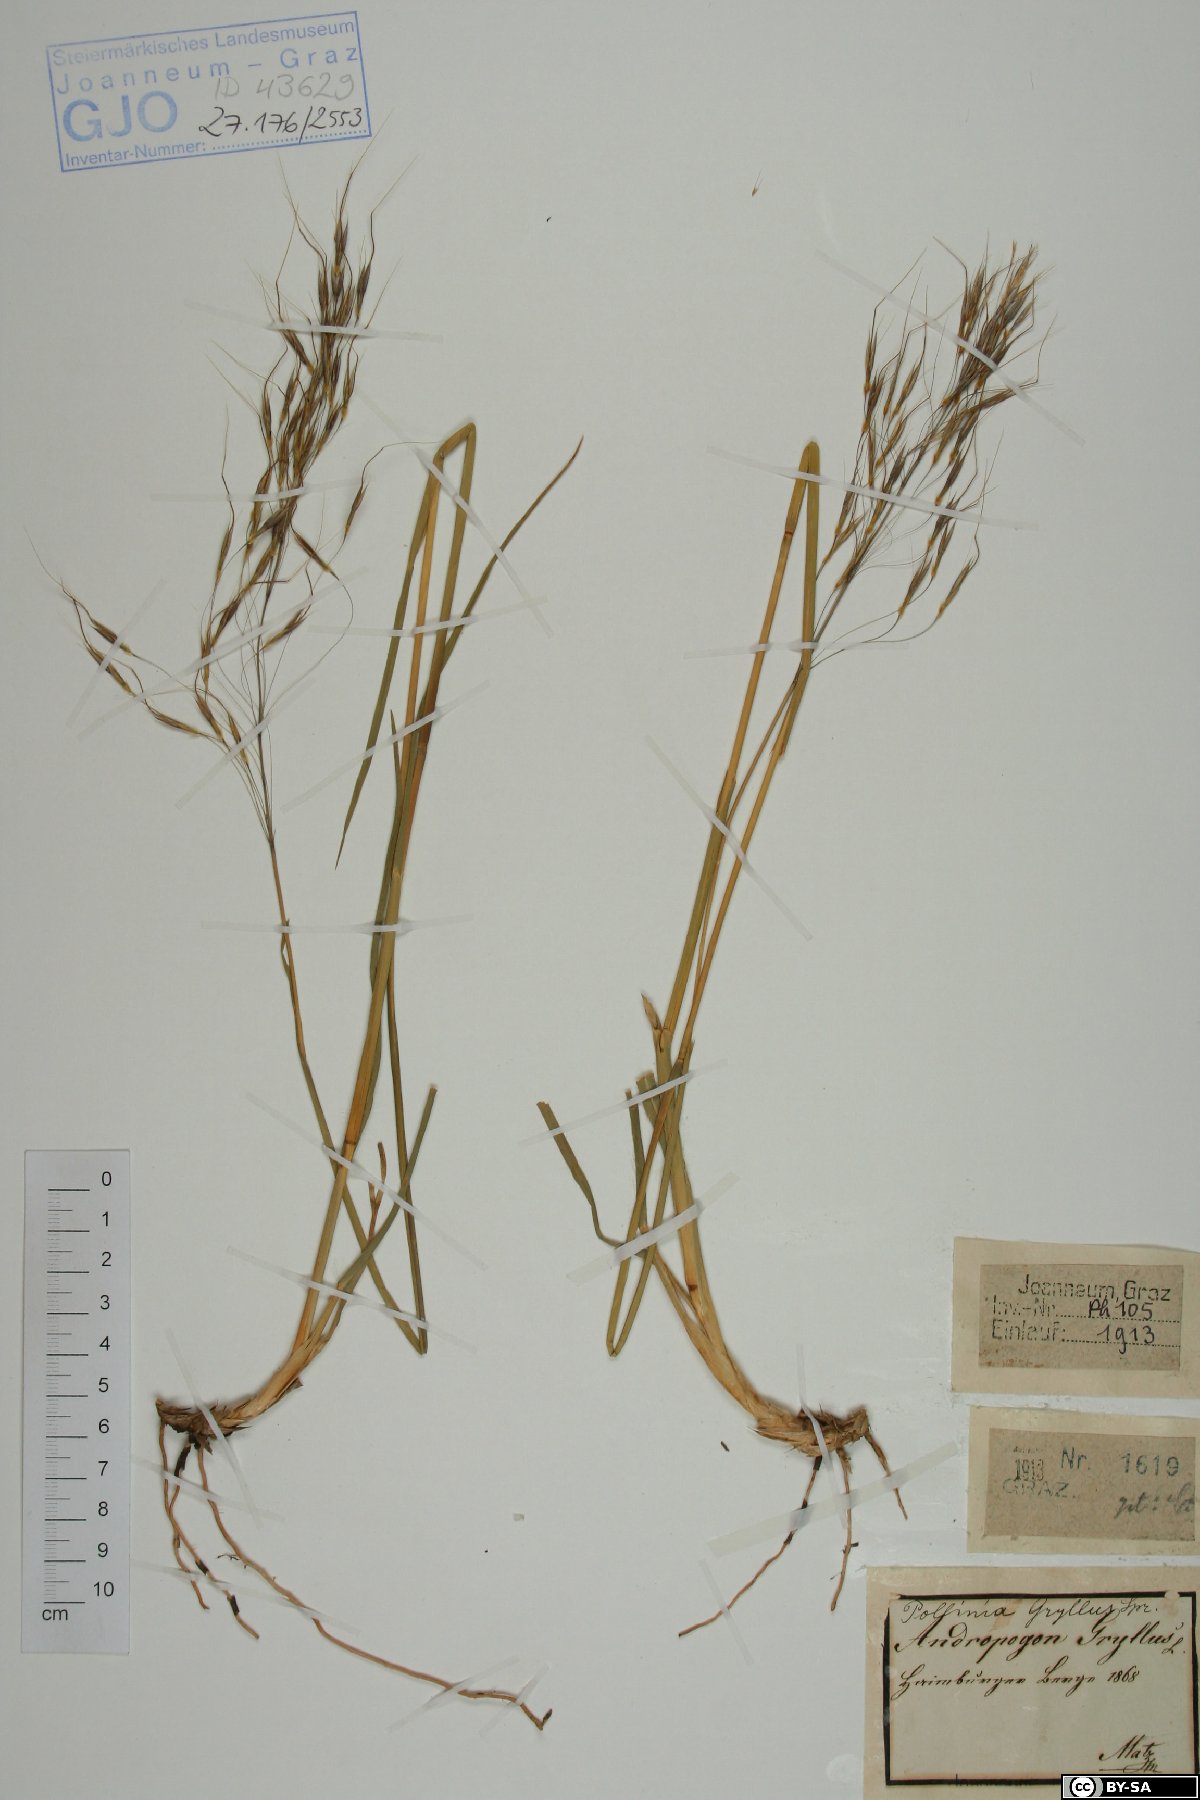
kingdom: Plantae
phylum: Tracheophyta
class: Liliopsida
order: Poales
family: Poaceae
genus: Chrysopogon
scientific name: Chrysopogon gryllus
